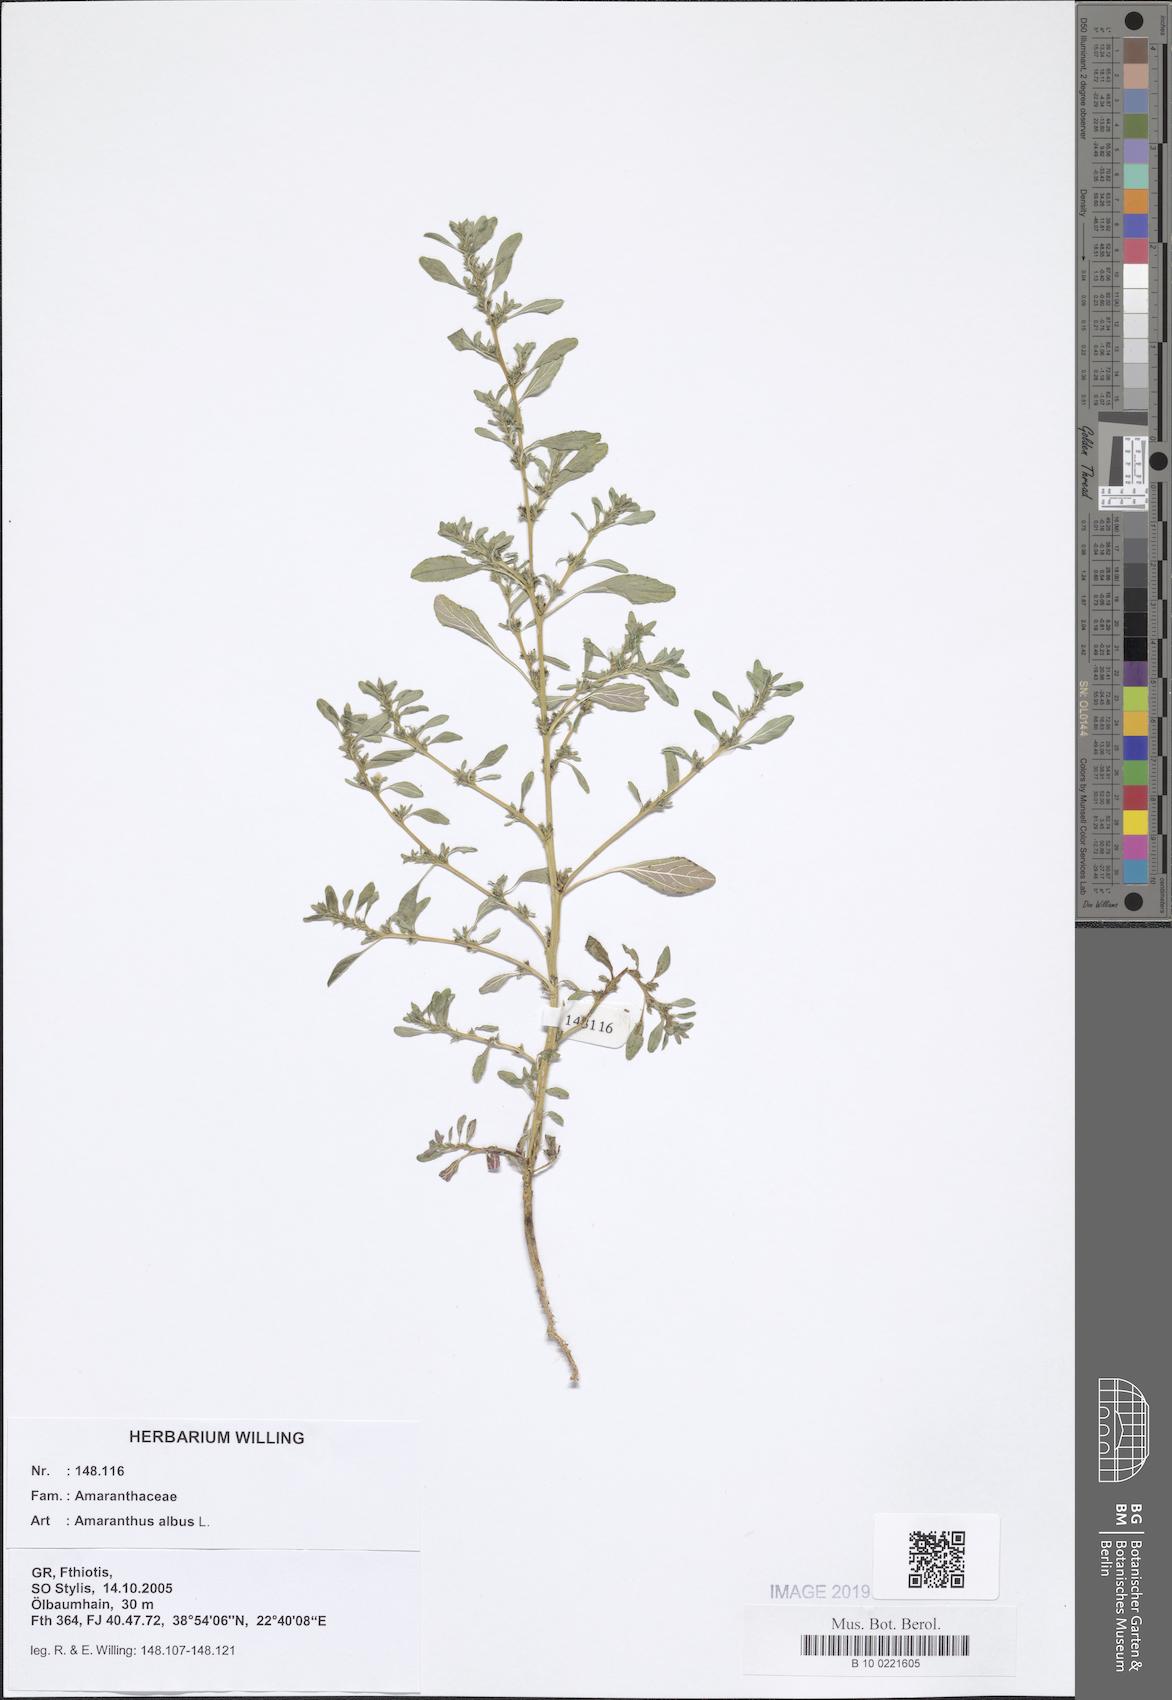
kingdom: Plantae
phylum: Tracheophyta
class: Magnoliopsida
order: Caryophyllales
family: Amaranthaceae
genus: Amaranthus
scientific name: Amaranthus albus
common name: White pigweed
